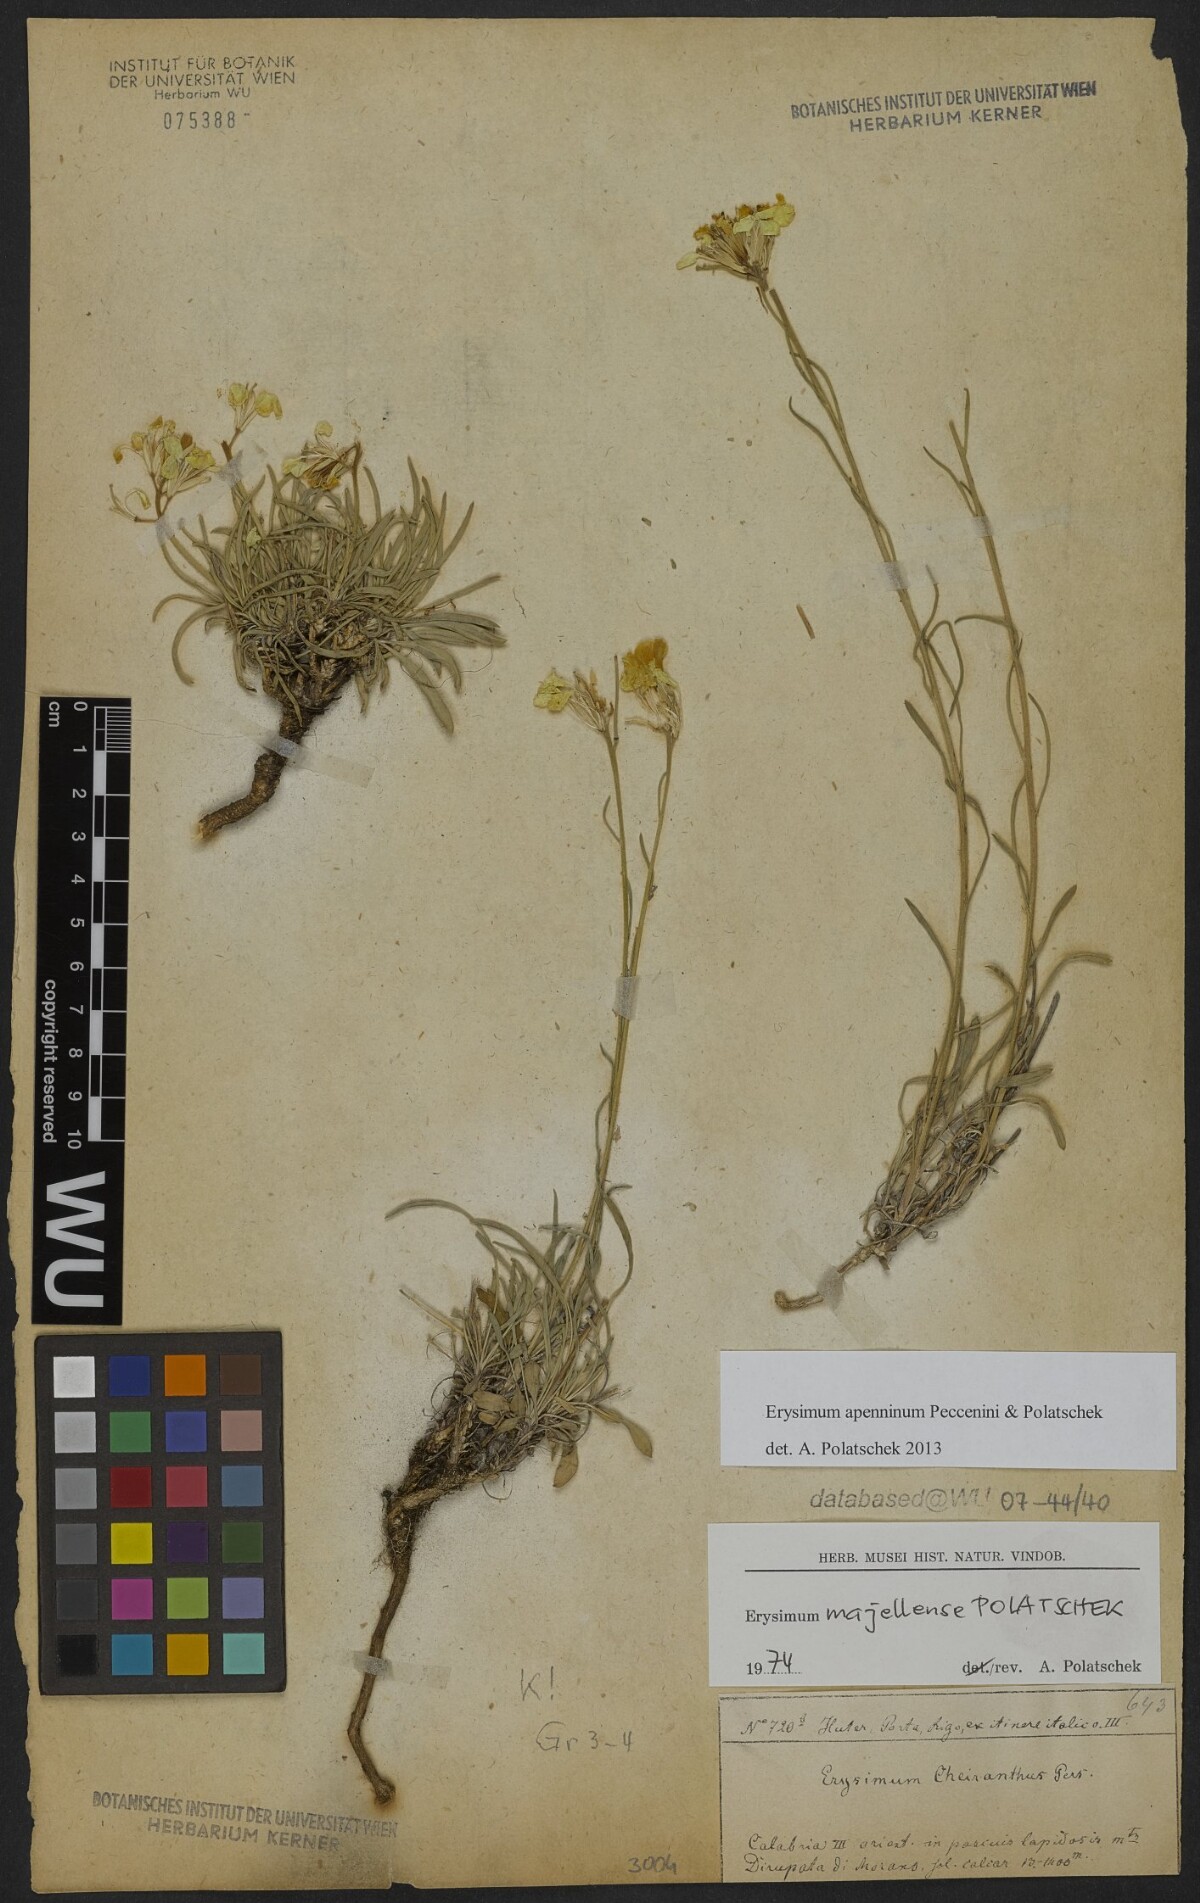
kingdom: Plantae
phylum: Tracheophyta
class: Magnoliopsida
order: Brassicales
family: Brassicaceae
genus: Erysimum
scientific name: Erysimum
